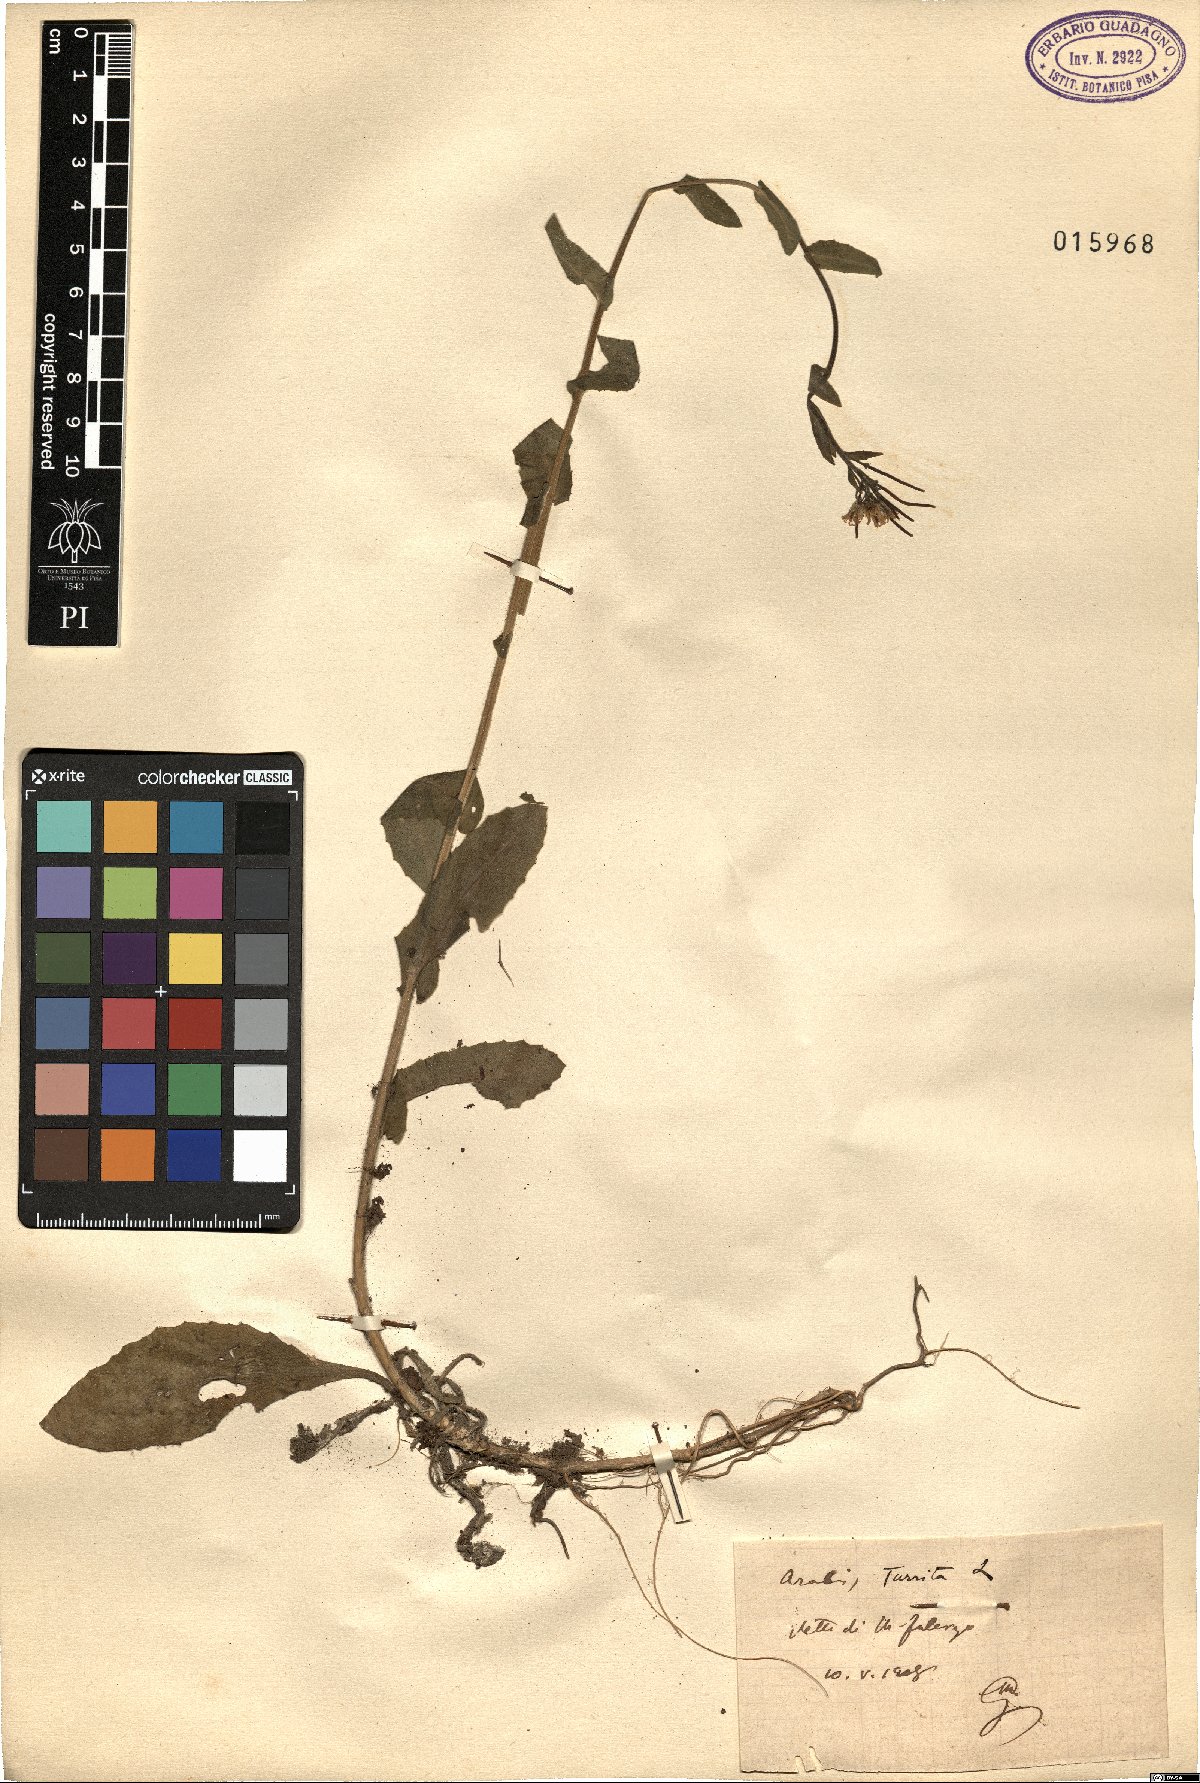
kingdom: Plantae
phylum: Tracheophyta
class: Magnoliopsida
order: Brassicales
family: Brassicaceae
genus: Pseudoturritis
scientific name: Pseudoturritis turrita
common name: Tower cress
